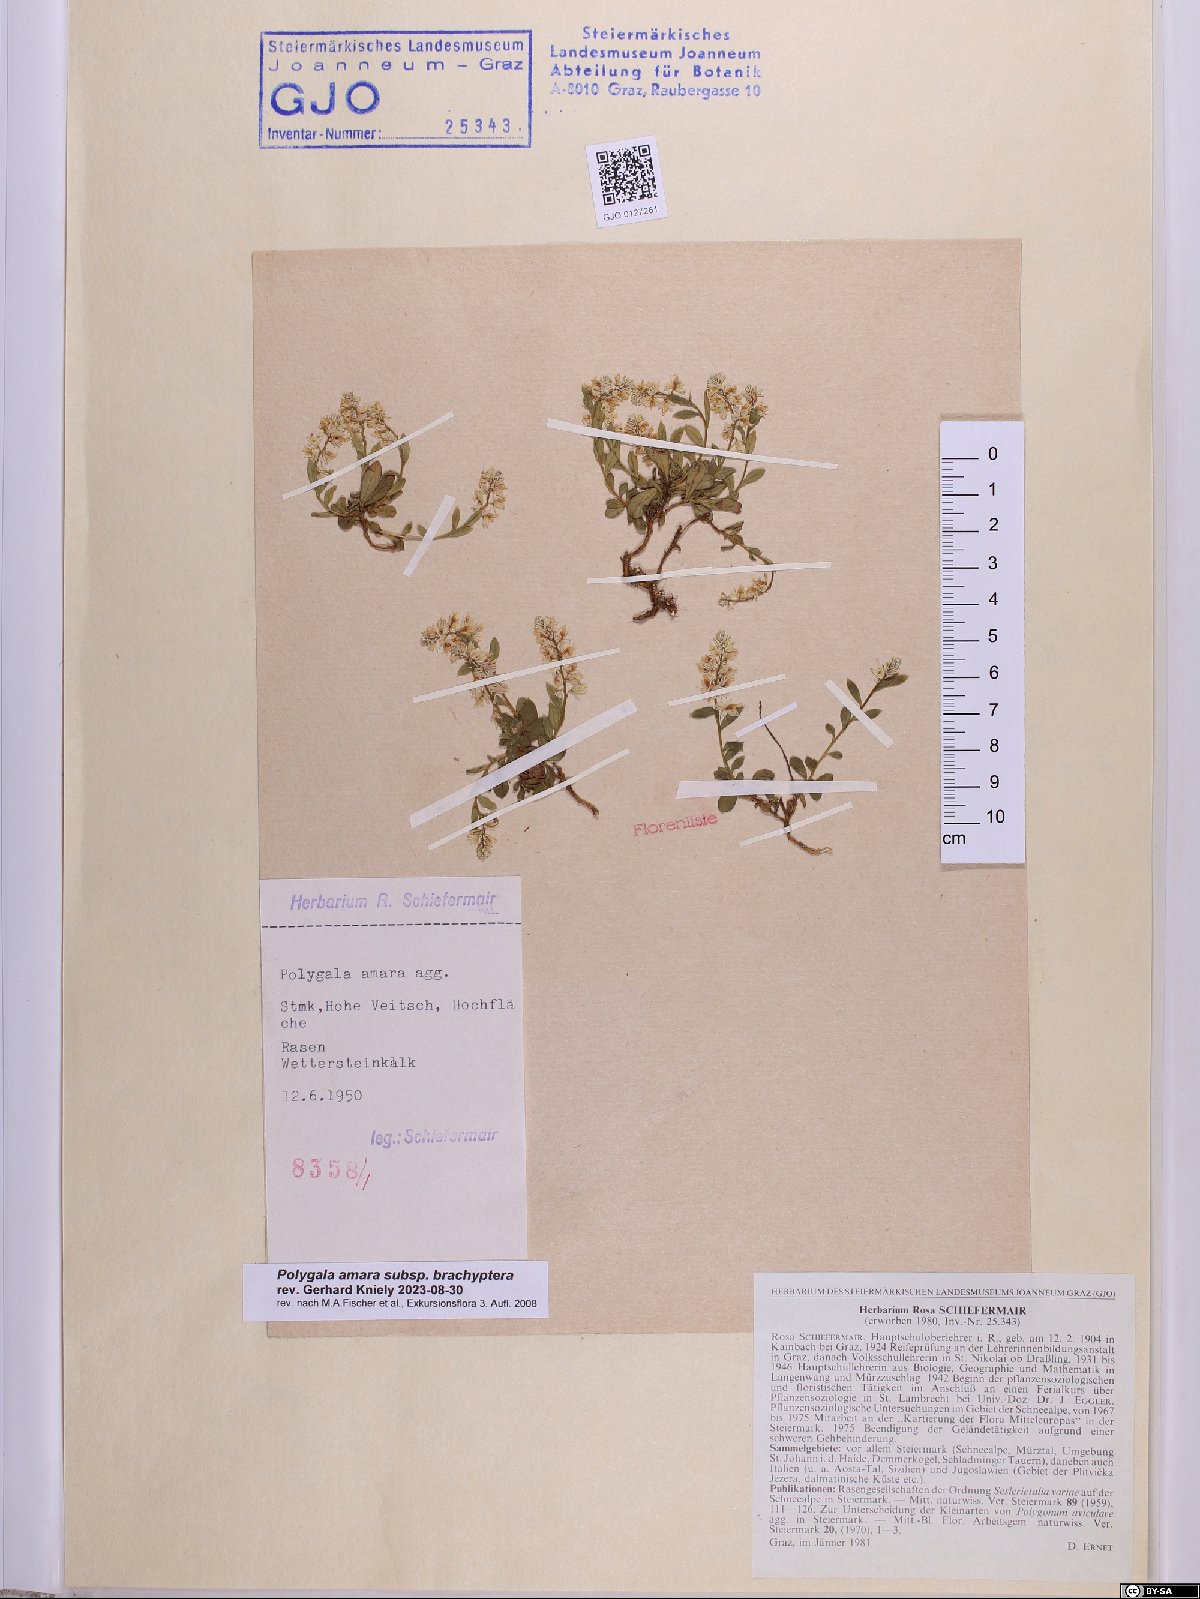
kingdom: Plantae
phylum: Tracheophyta
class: Magnoliopsida
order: Fabales
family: Polygalaceae
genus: Polygala
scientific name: Polygala amara
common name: Milkwort
